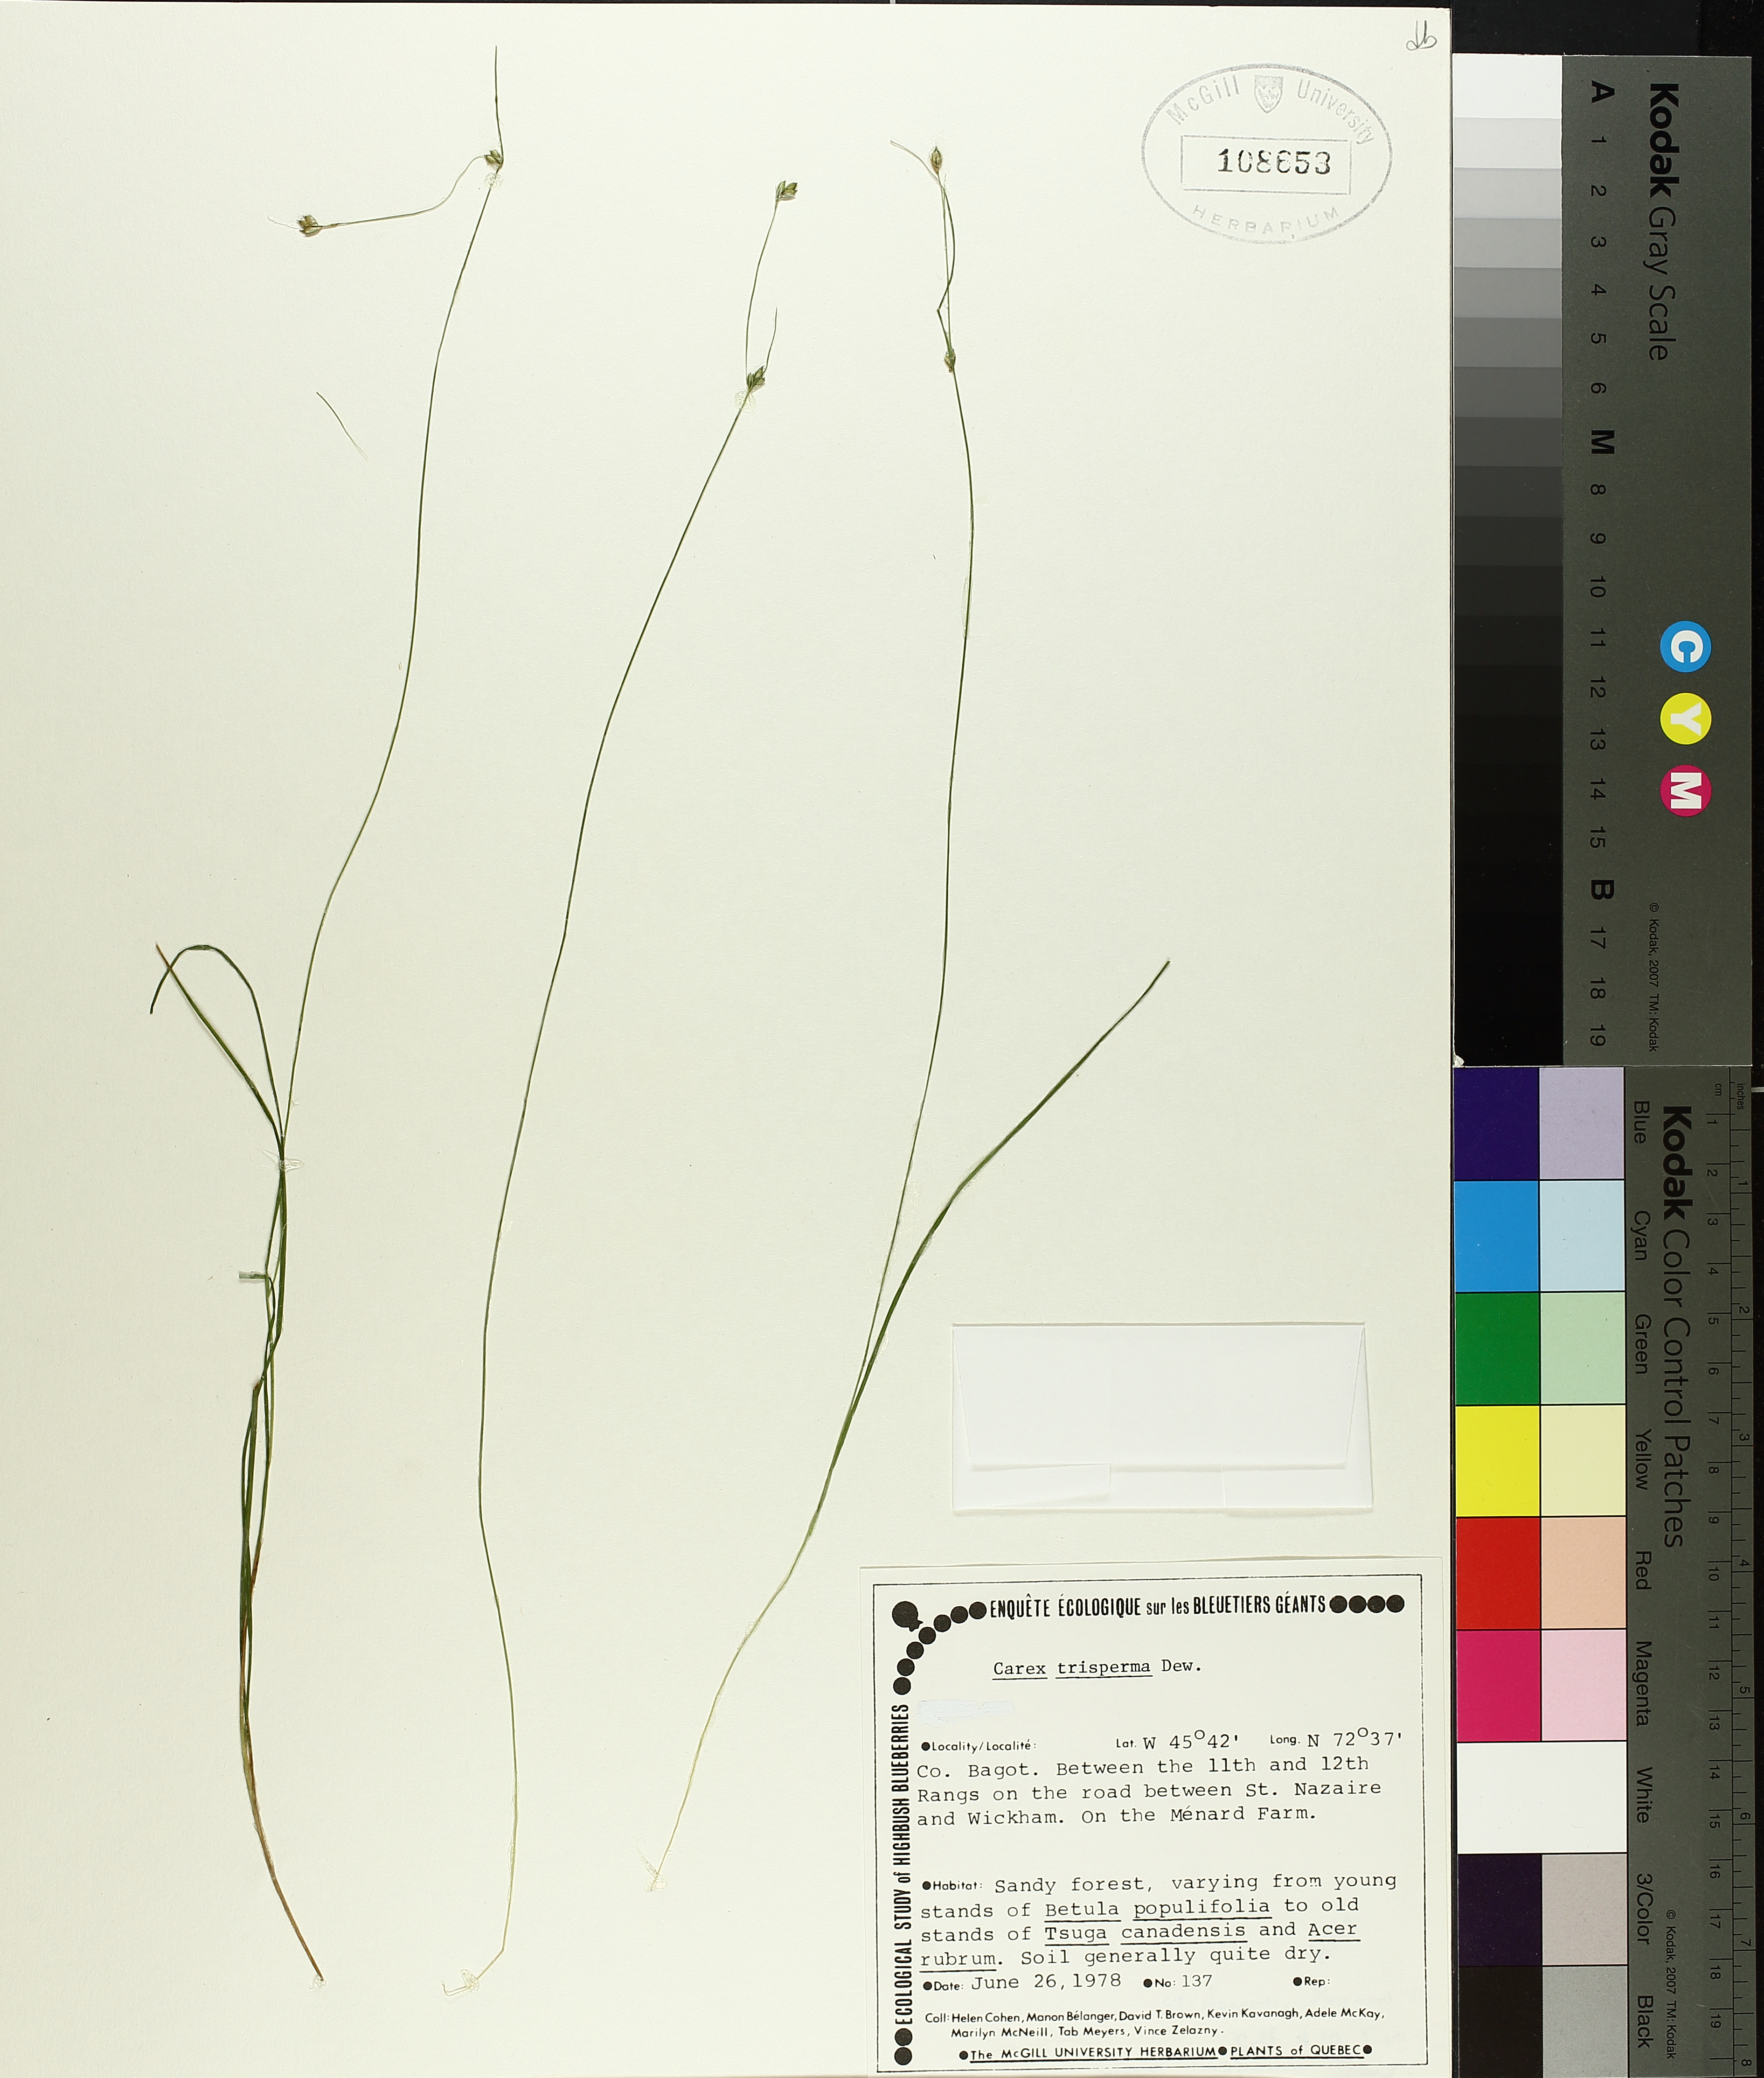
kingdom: Plantae
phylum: Tracheophyta
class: Liliopsida
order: Poales
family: Cyperaceae
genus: Carex
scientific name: Carex trisperma
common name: Three-seeded sedge
